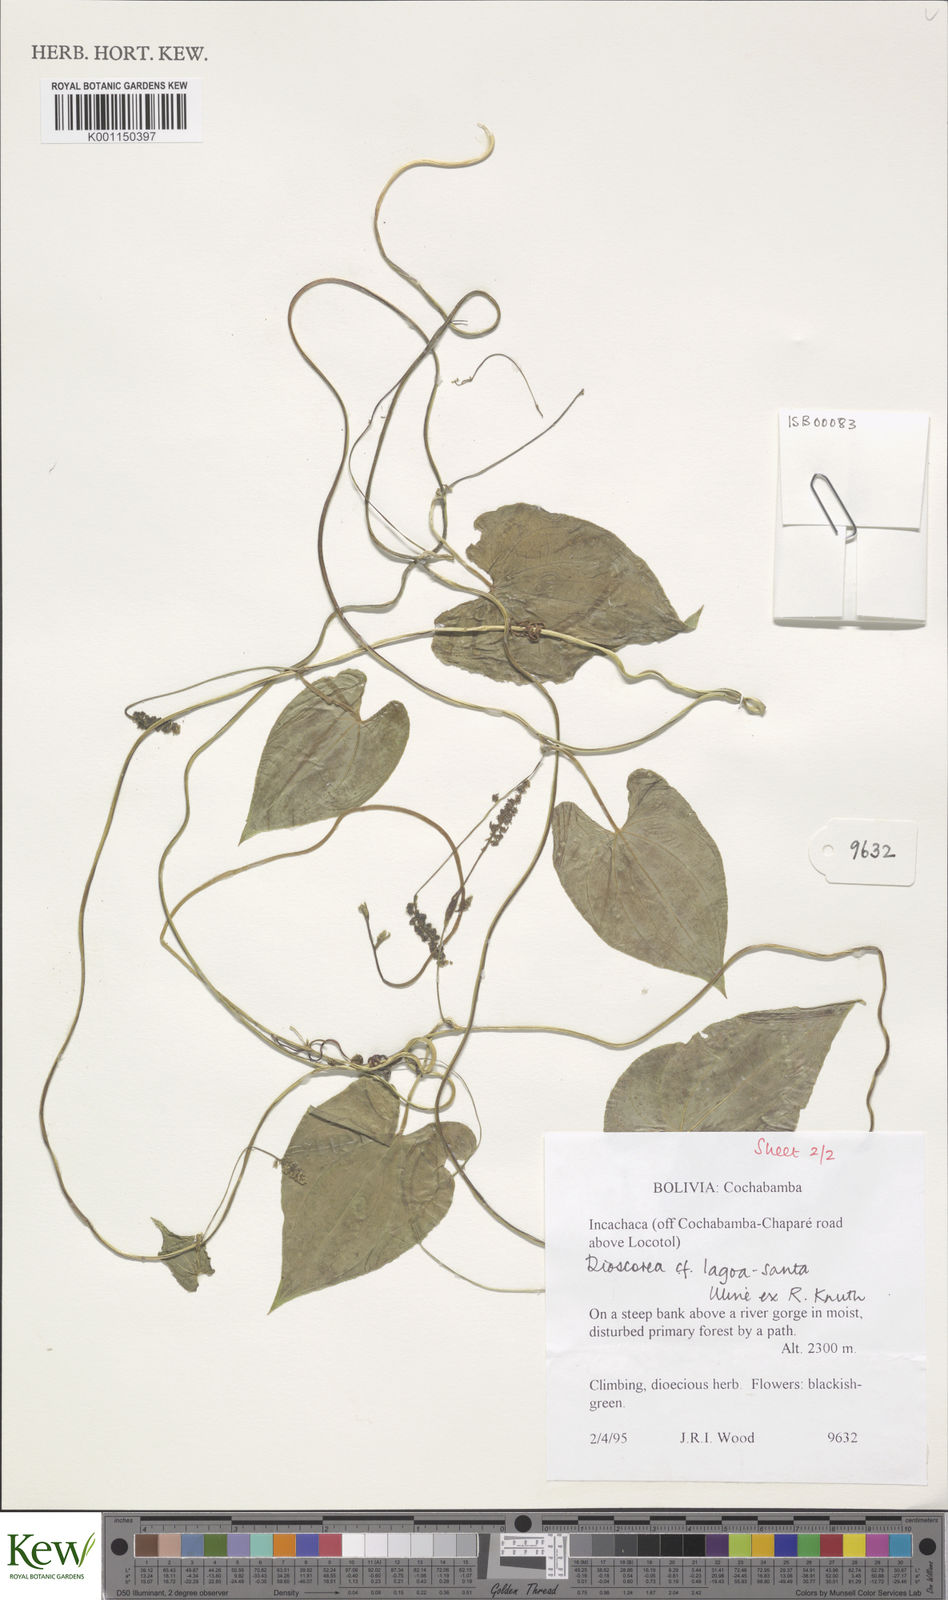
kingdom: Plantae
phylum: Tracheophyta
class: Liliopsida
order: Dioscoreales
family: Dioscoreaceae
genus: Dioscorea
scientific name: Dioscorea spectabilis
